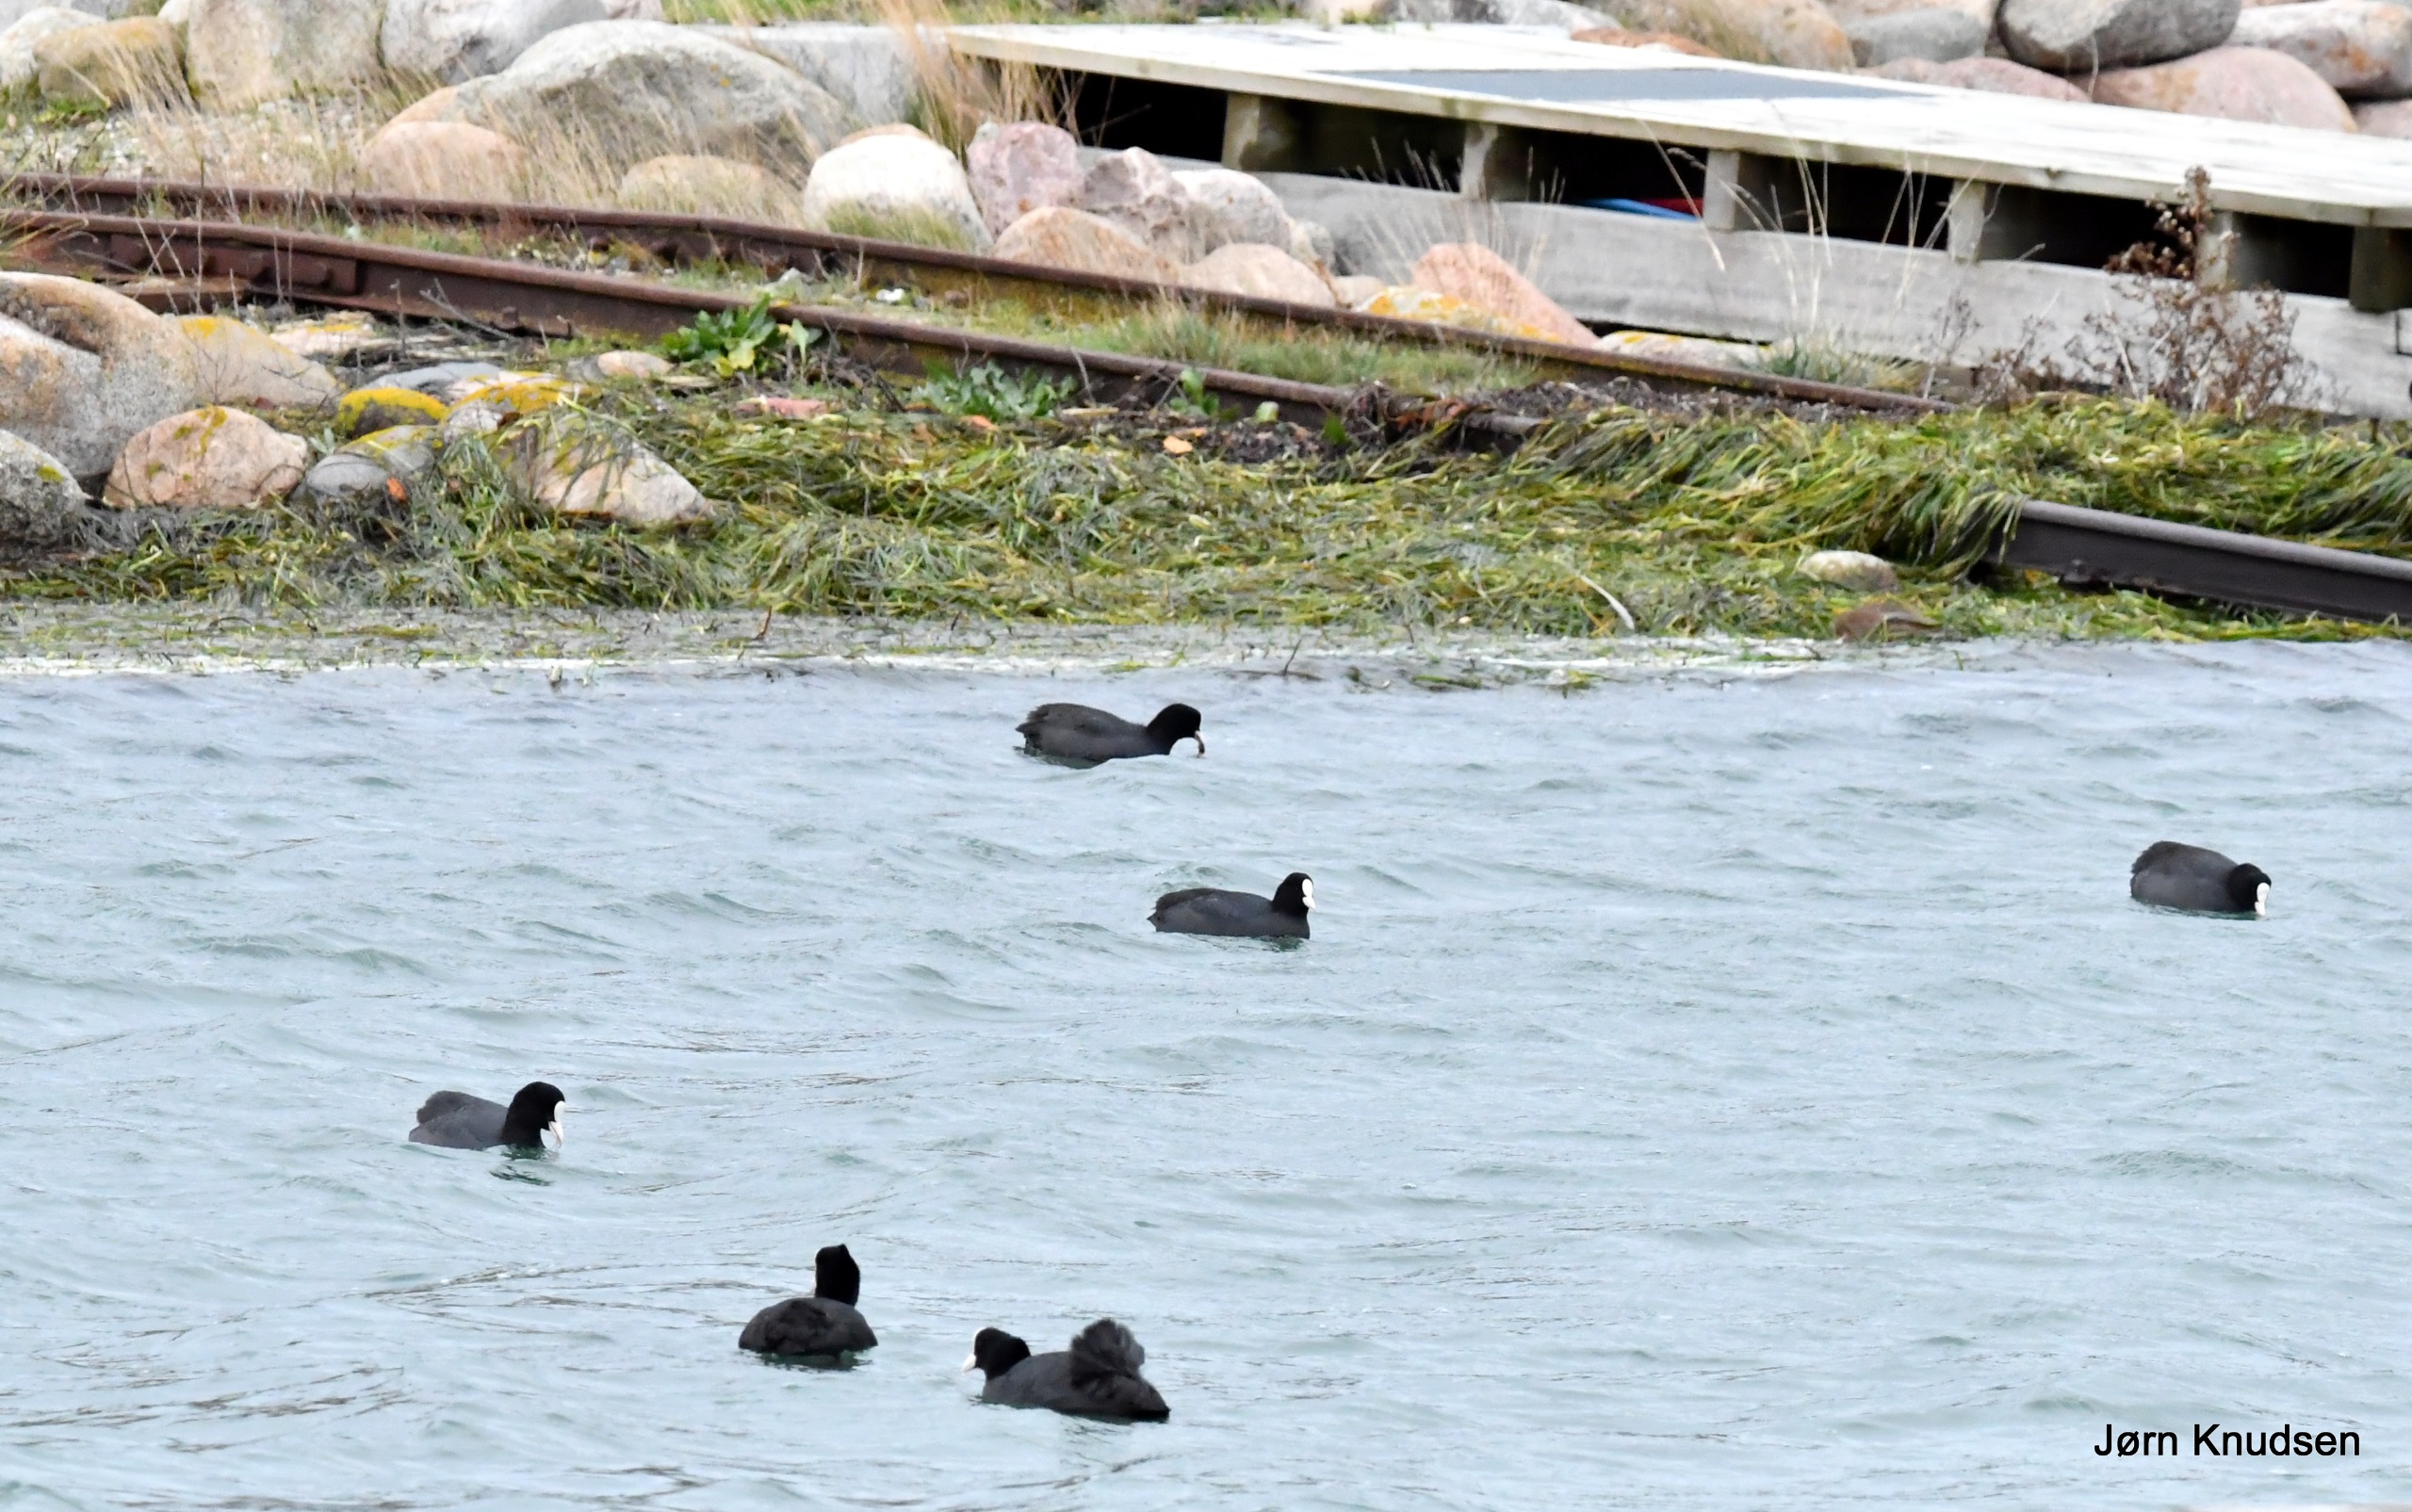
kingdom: Animalia
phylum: Chordata
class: Aves
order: Gruiformes
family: Rallidae
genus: Fulica
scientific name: Fulica atra
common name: Blishøne
